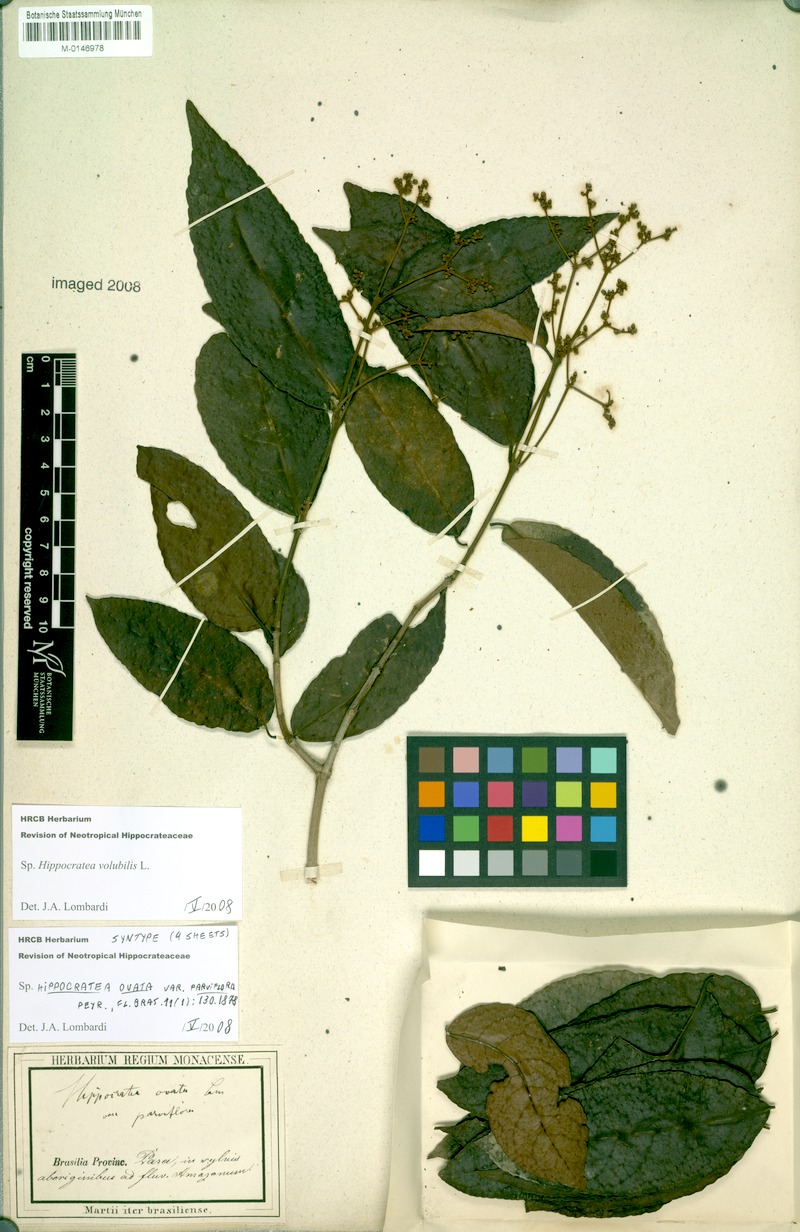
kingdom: Plantae
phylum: Tracheophyta
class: Magnoliopsida
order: Celastrales
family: Celastraceae
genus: Hippocratea
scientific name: Hippocratea volubilis
